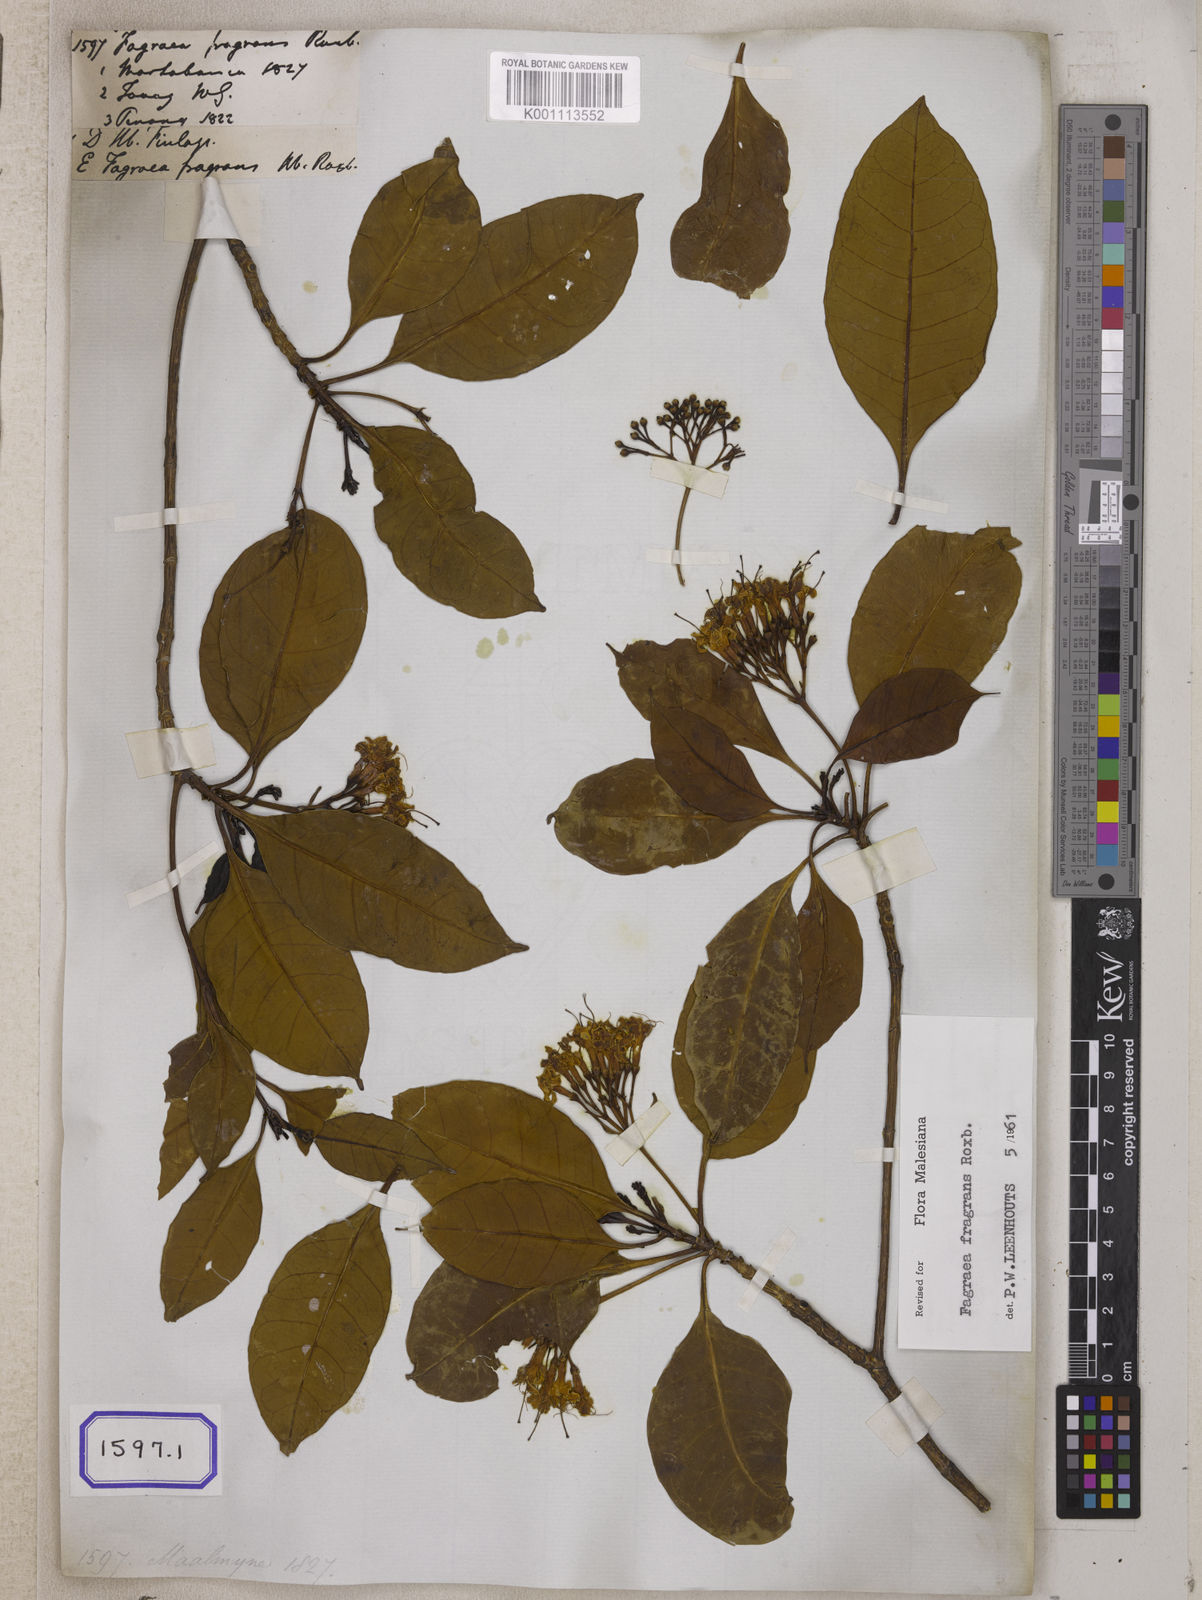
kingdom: Plantae
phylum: Tracheophyta
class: Magnoliopsida
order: Gentianales
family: Gentianaceae
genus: Cyrtophyllum
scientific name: Cyrtophyllum fragrans
